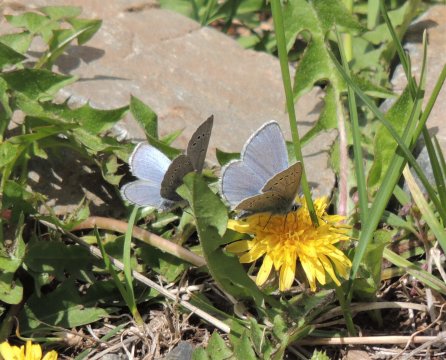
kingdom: Animalia
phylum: Arthropoda
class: Insecta
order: Lepidoptera
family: Lycaenidae
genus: Glaucopsyche
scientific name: Glaucopsyche lygdamus
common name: Silvery Blue
